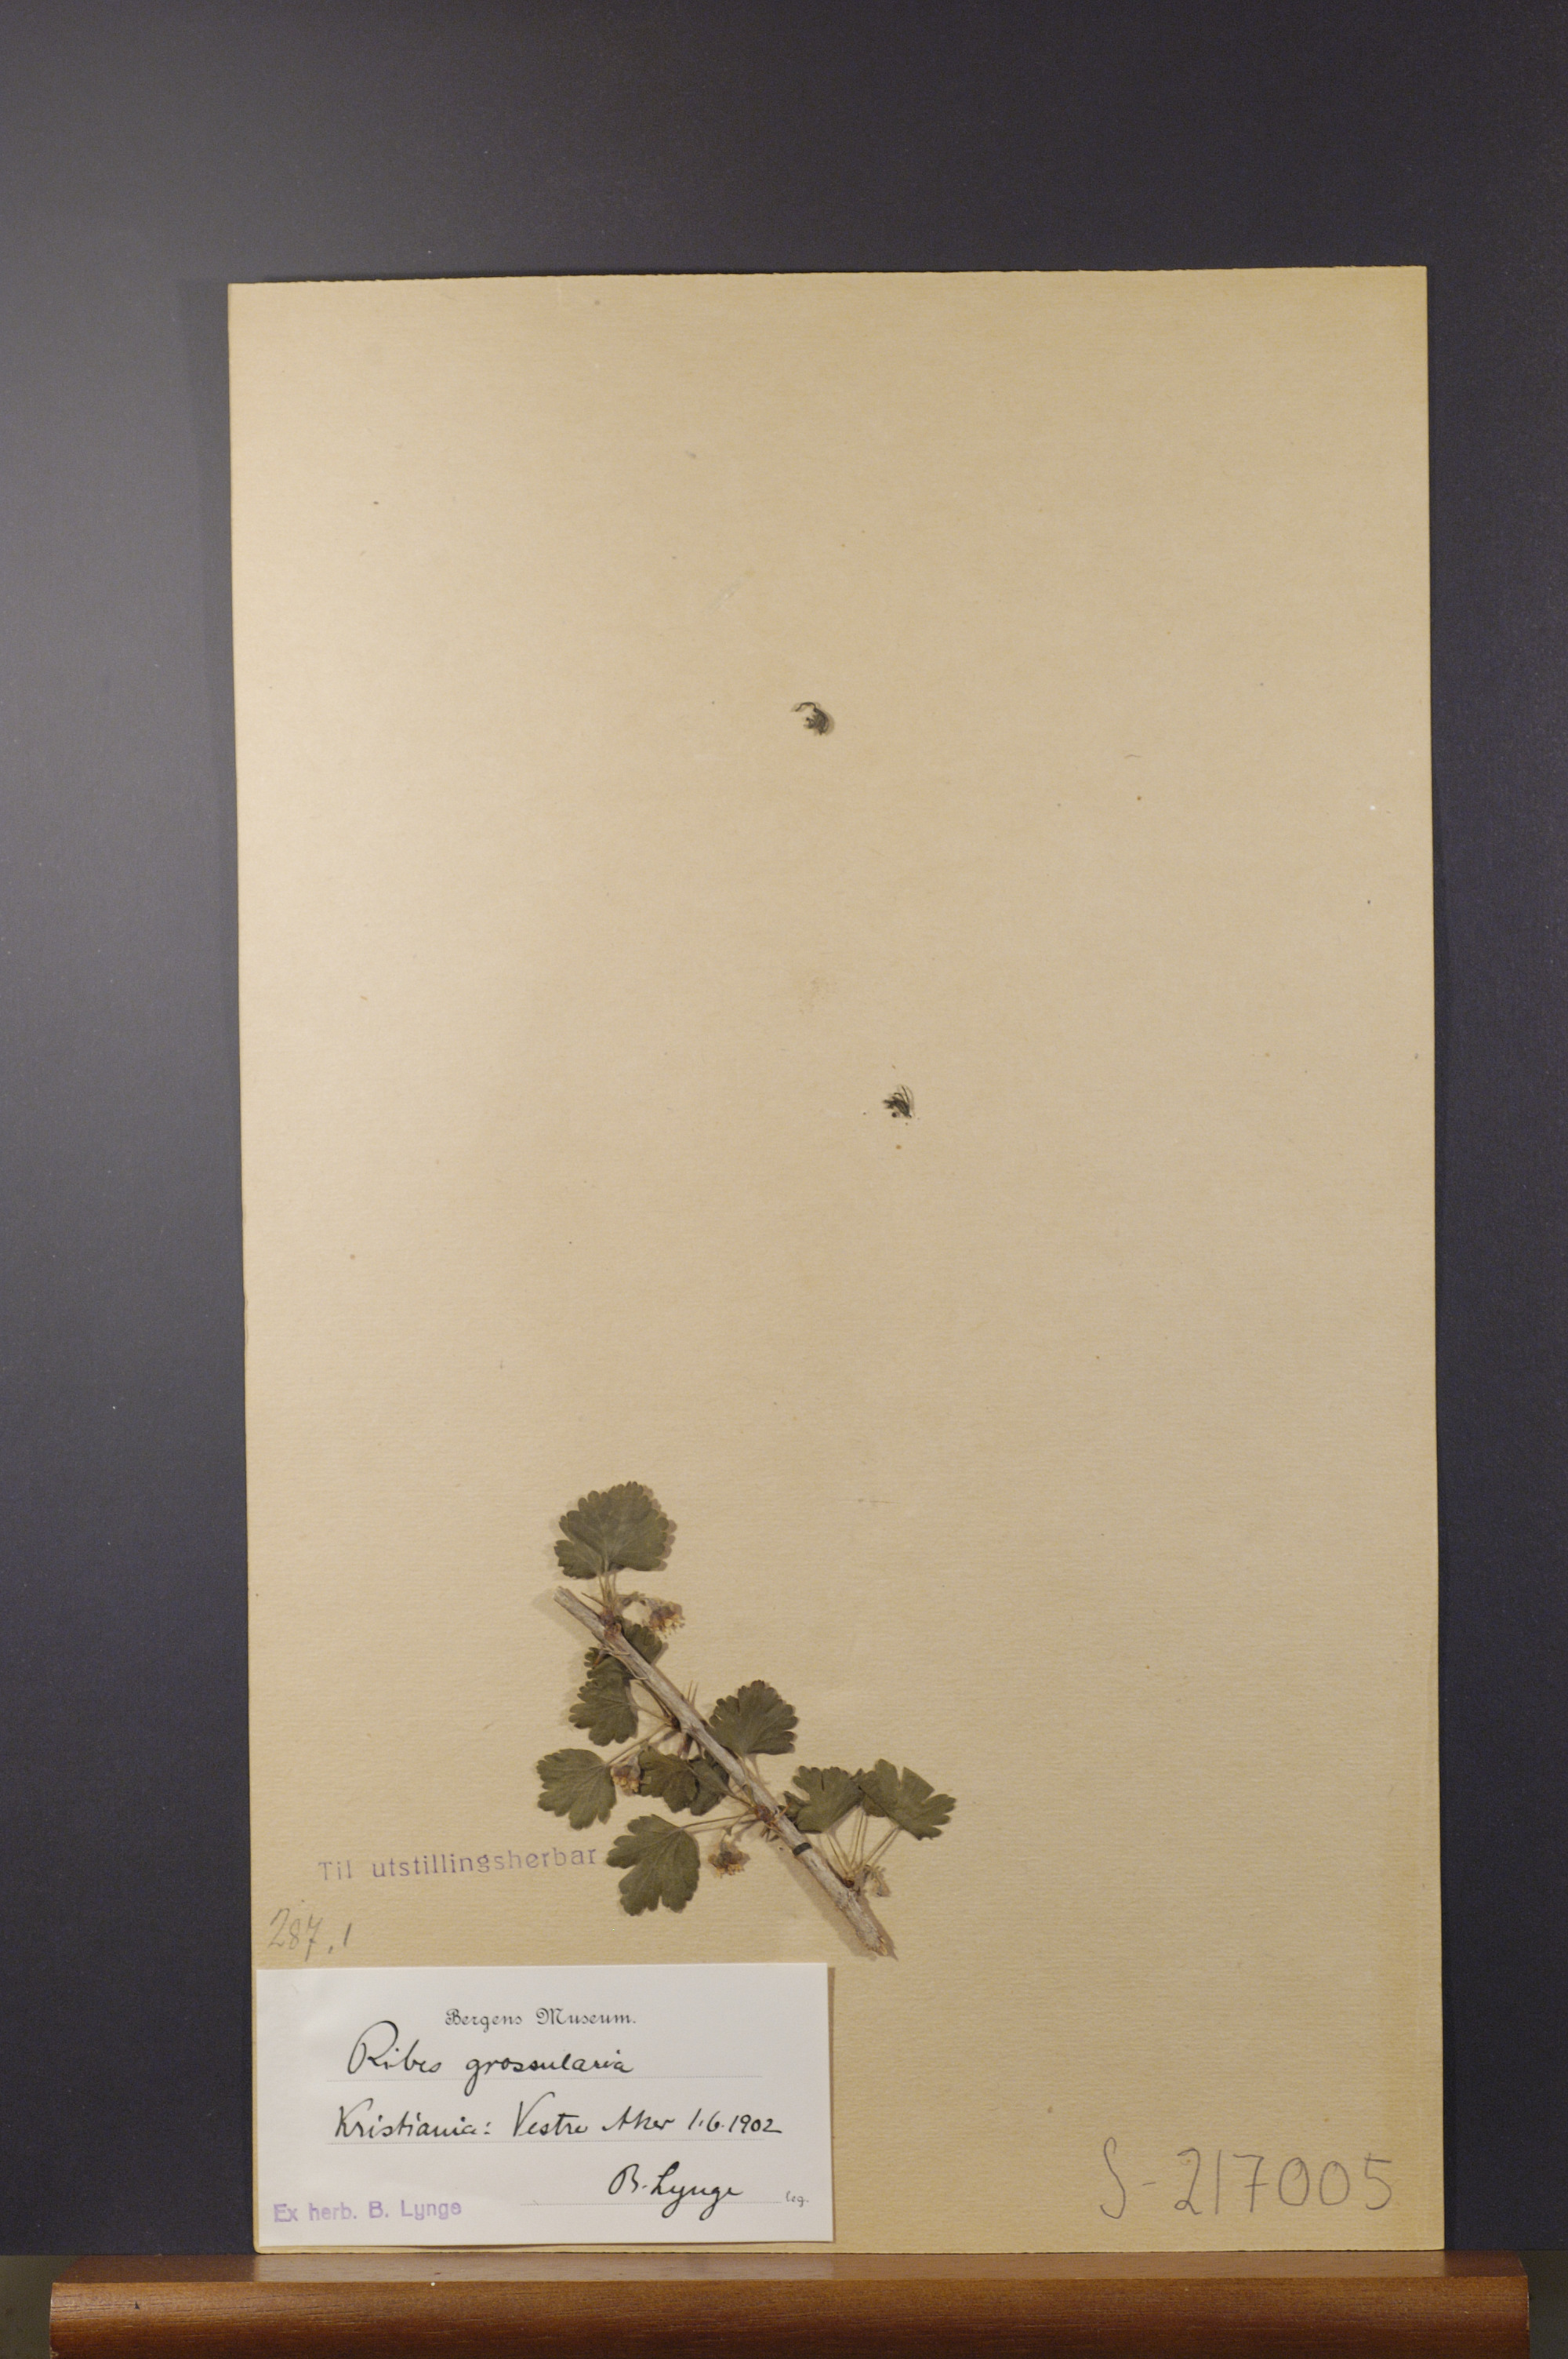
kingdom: Plantae
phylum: Tracheophyta
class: Magnoliopsida
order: Saxifragales
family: Grossulariaceae
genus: Ribes
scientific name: Ribes uva-crispa
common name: Gooseberry
